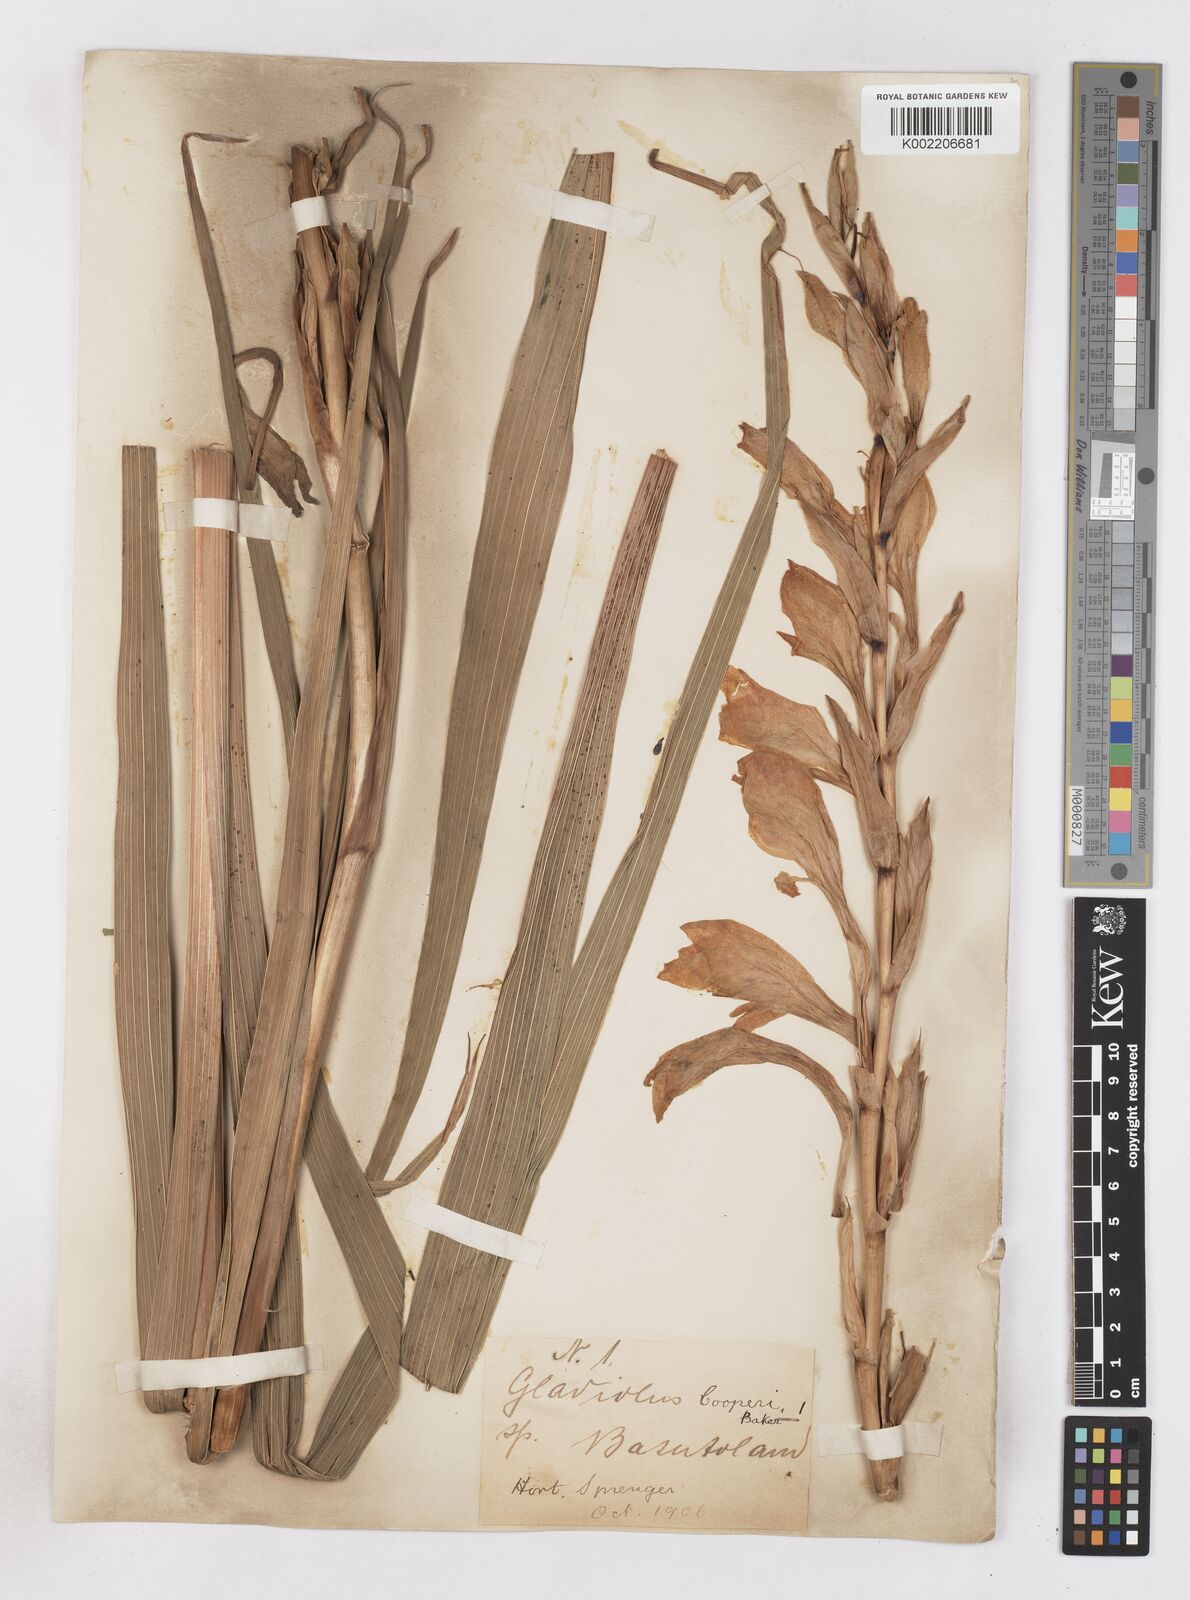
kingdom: Plantae
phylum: Tracheophyta
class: Liliopsida
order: Asparagales
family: Iridaceae
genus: Gladiolus
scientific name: Gladiolus dalenii
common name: Cornflag
